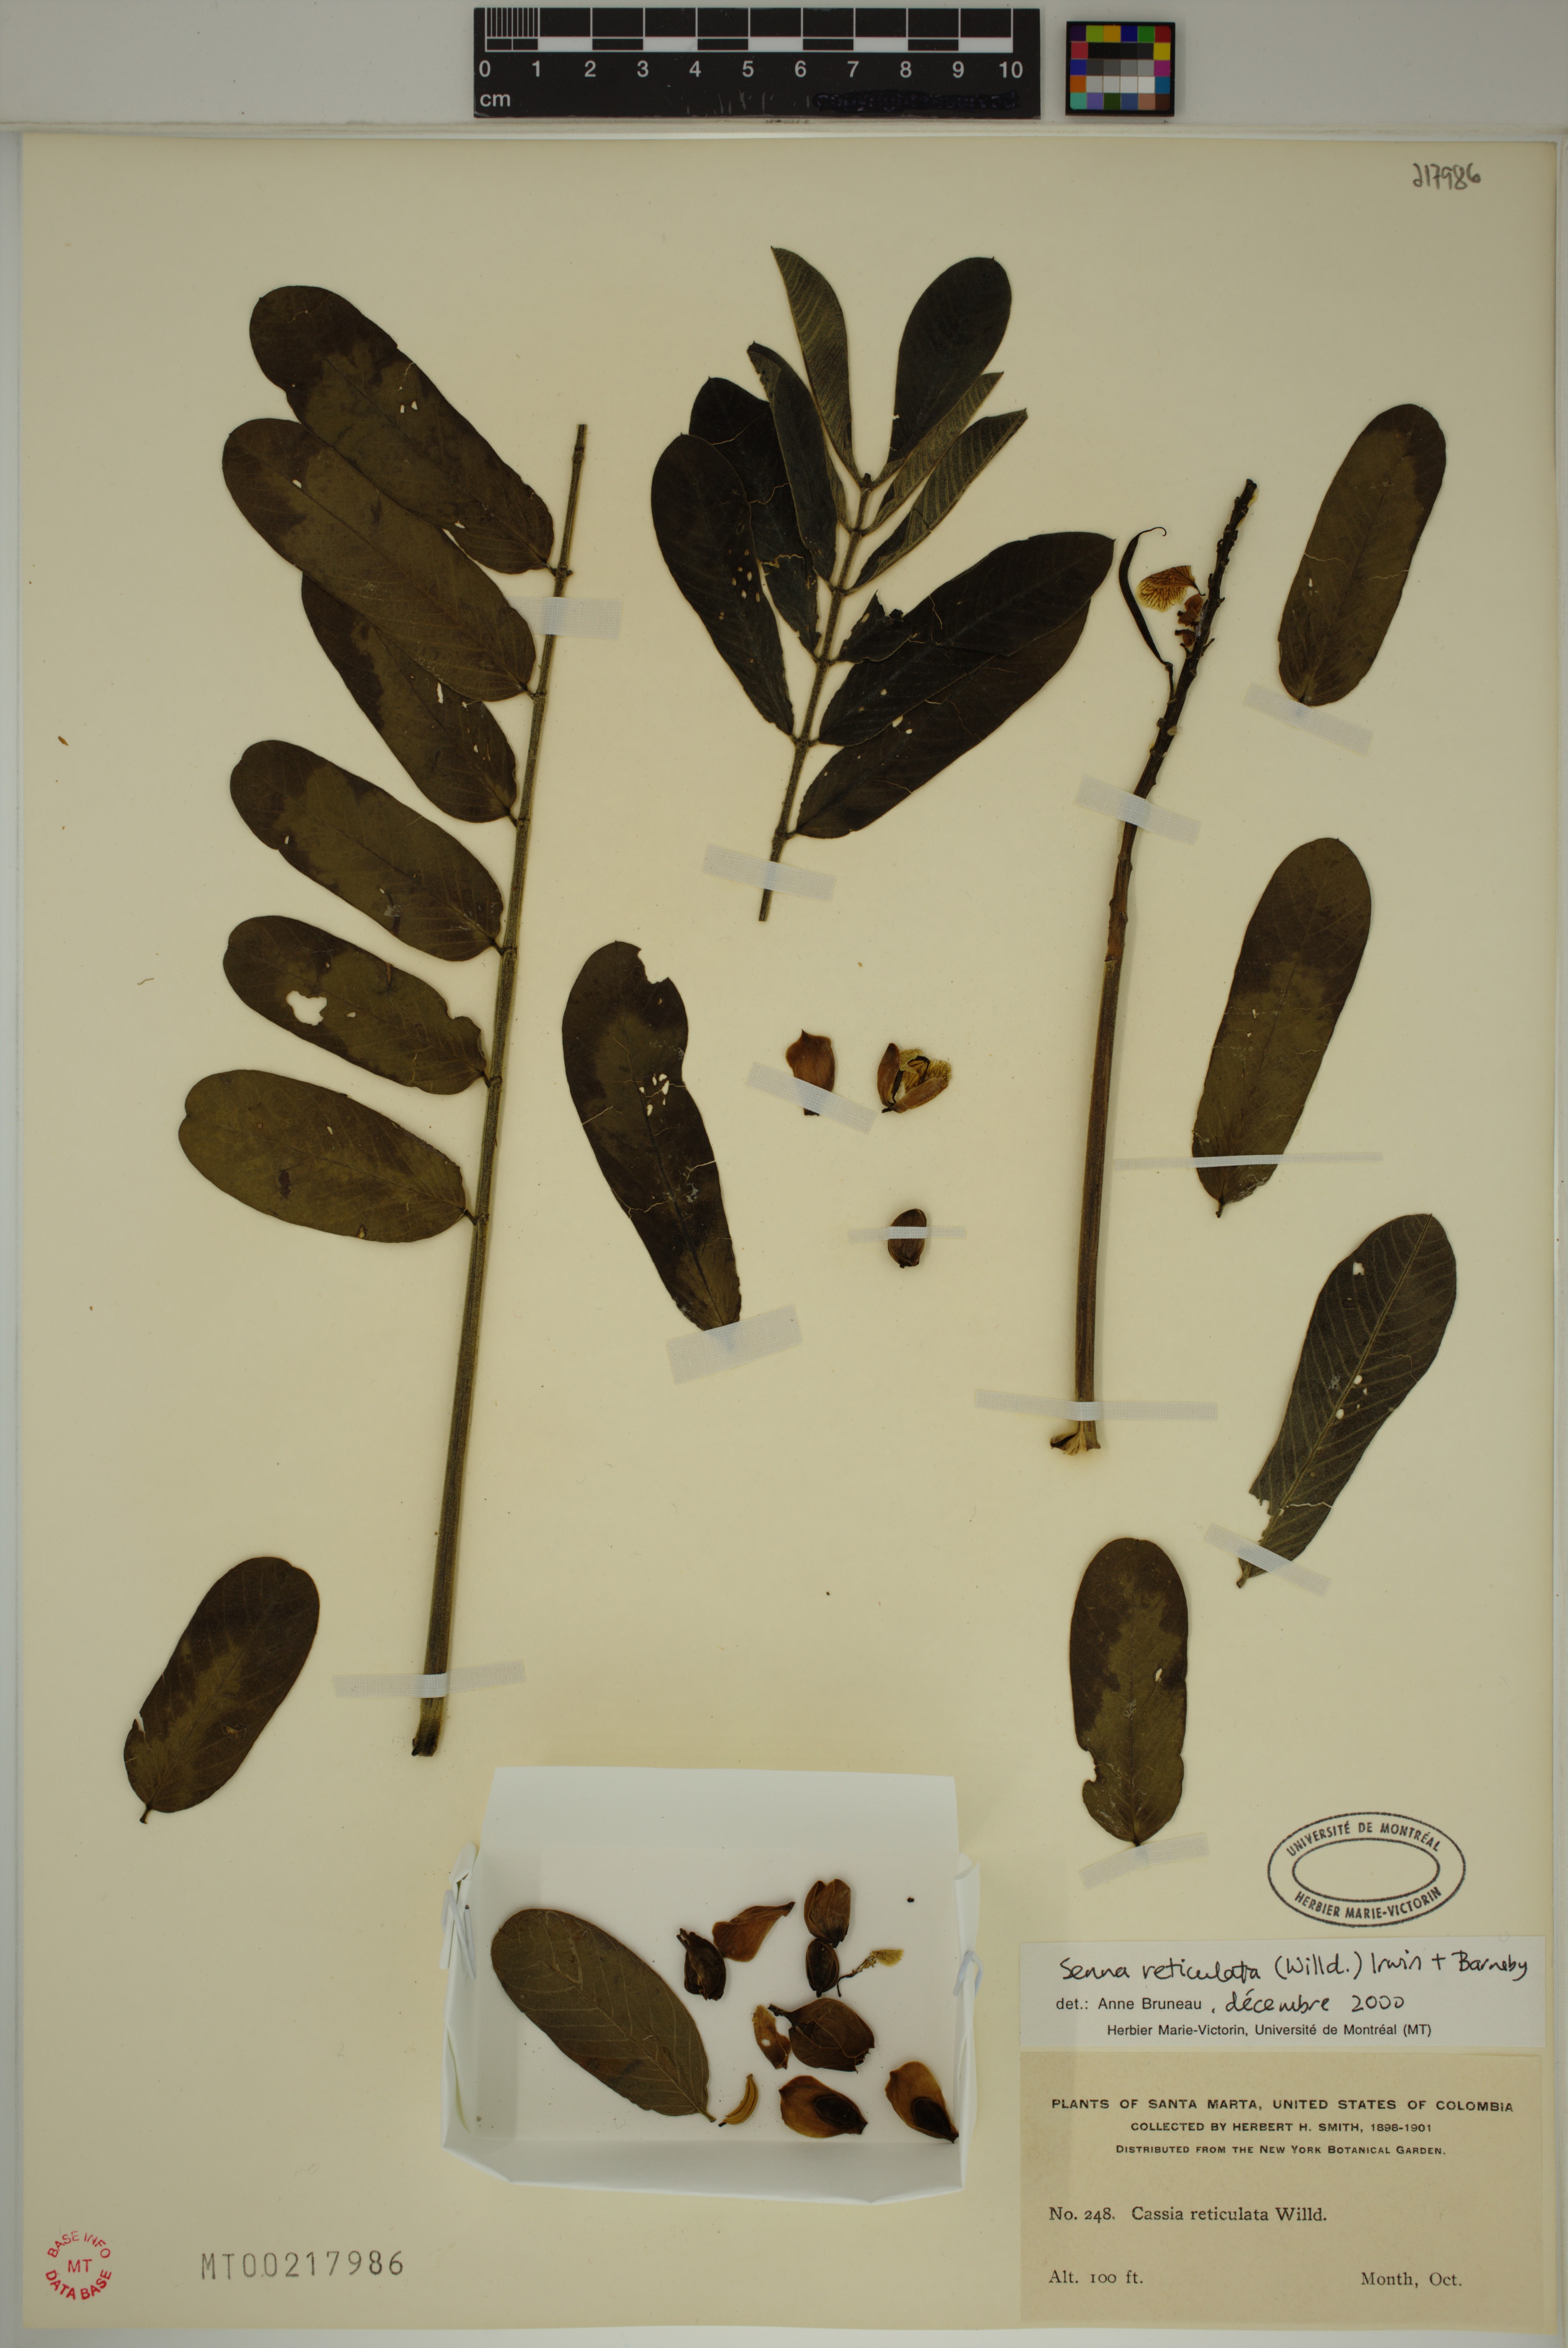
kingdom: Plantae
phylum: Tracheophyta
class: Magnoliopsida
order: Fabales
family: Fabaceae
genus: Senna
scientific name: Senna reticulata
